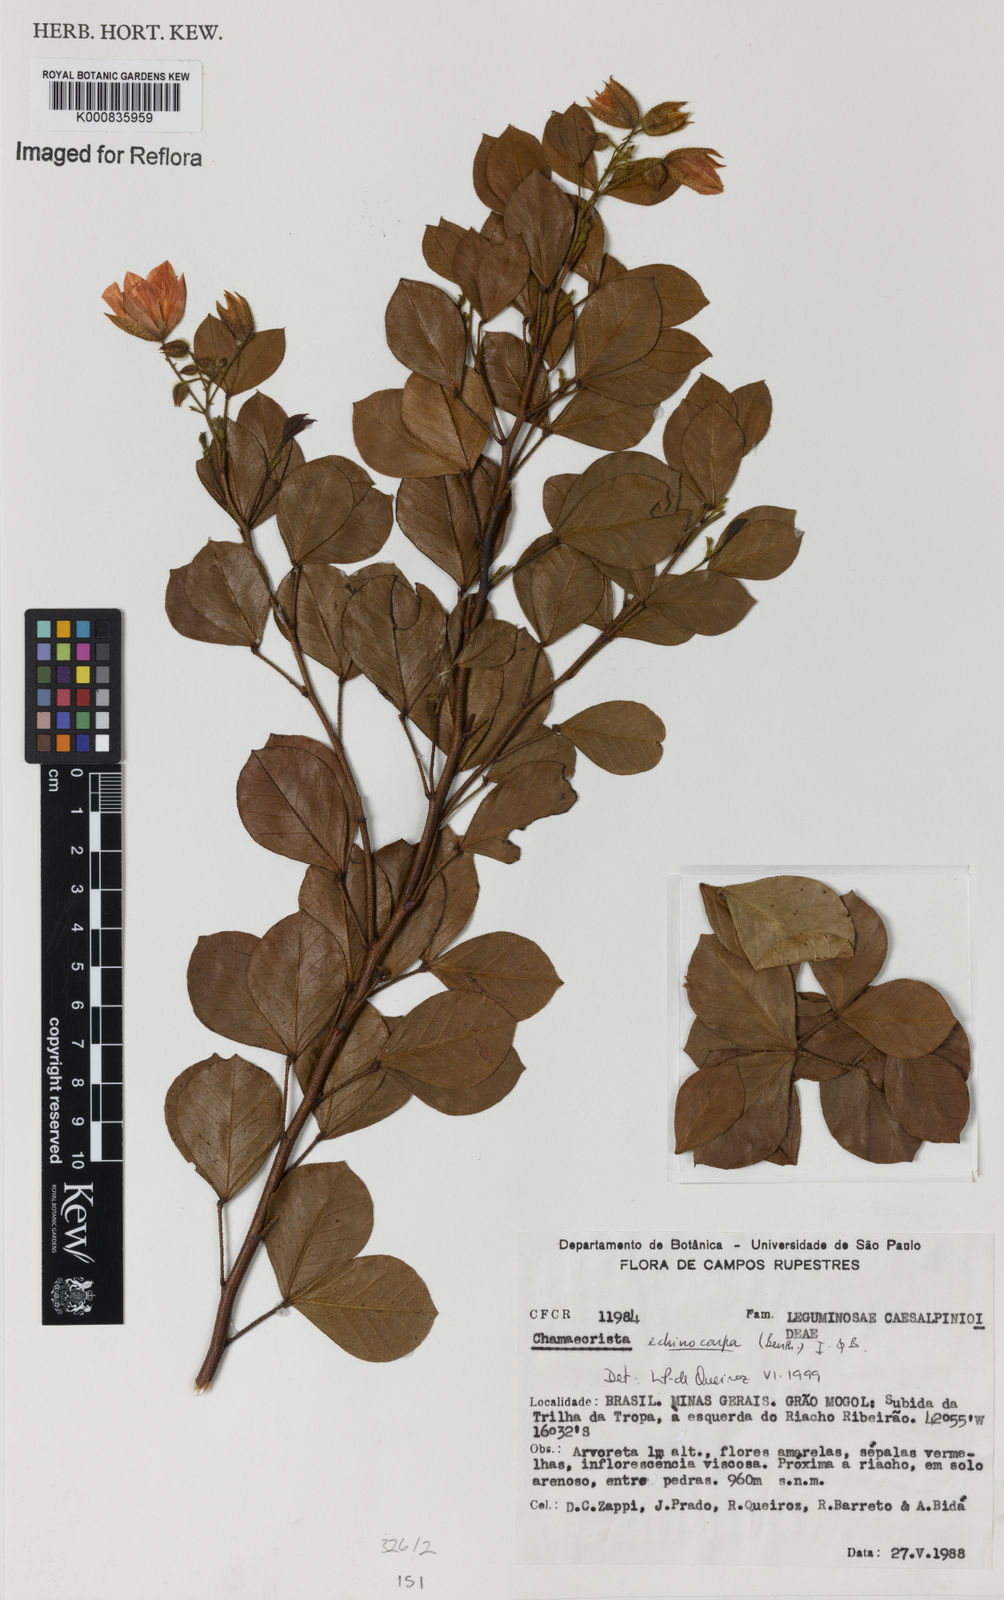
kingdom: Plantae
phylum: Tracheophyta
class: Magnoliopsida
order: Fabales
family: Fabaceae
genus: Chamaecrista
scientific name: Chamaecrista echinocarpa
